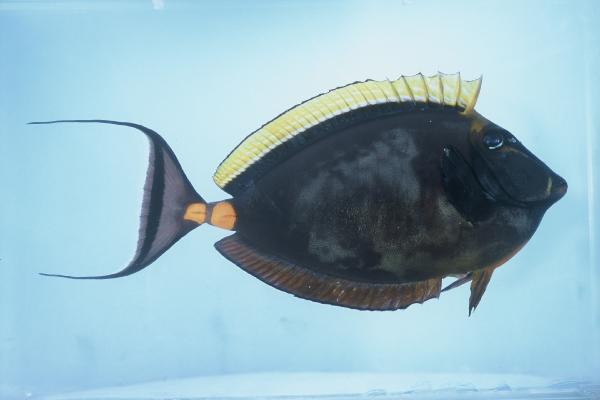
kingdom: Animalia
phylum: Chordata
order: Perciformes
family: Acanthuridae
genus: Naso
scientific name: Naso elegans
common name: Orangespine unicornfish
